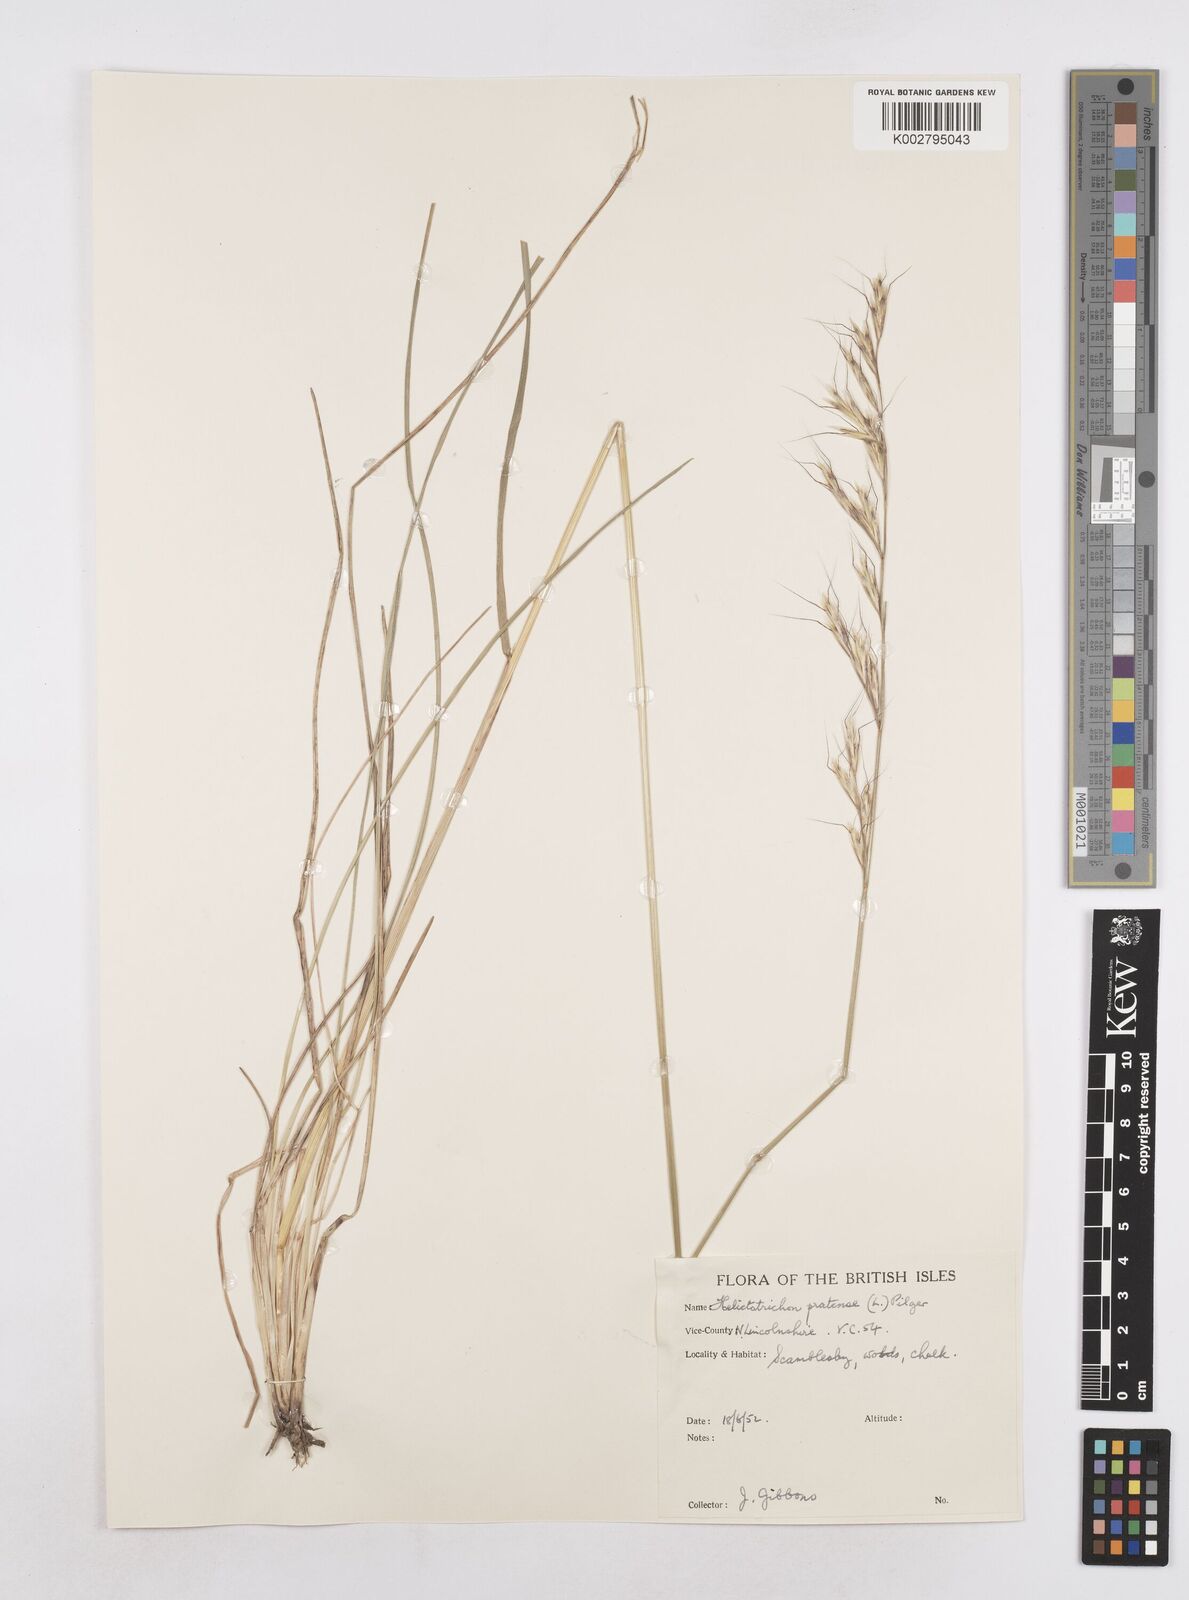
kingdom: Plantae
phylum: Tracheophyta
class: Liliopsida
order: Poales
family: Poaceae
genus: Helictochloa
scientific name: Helictochloa pratensis
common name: Meadow oat grass
